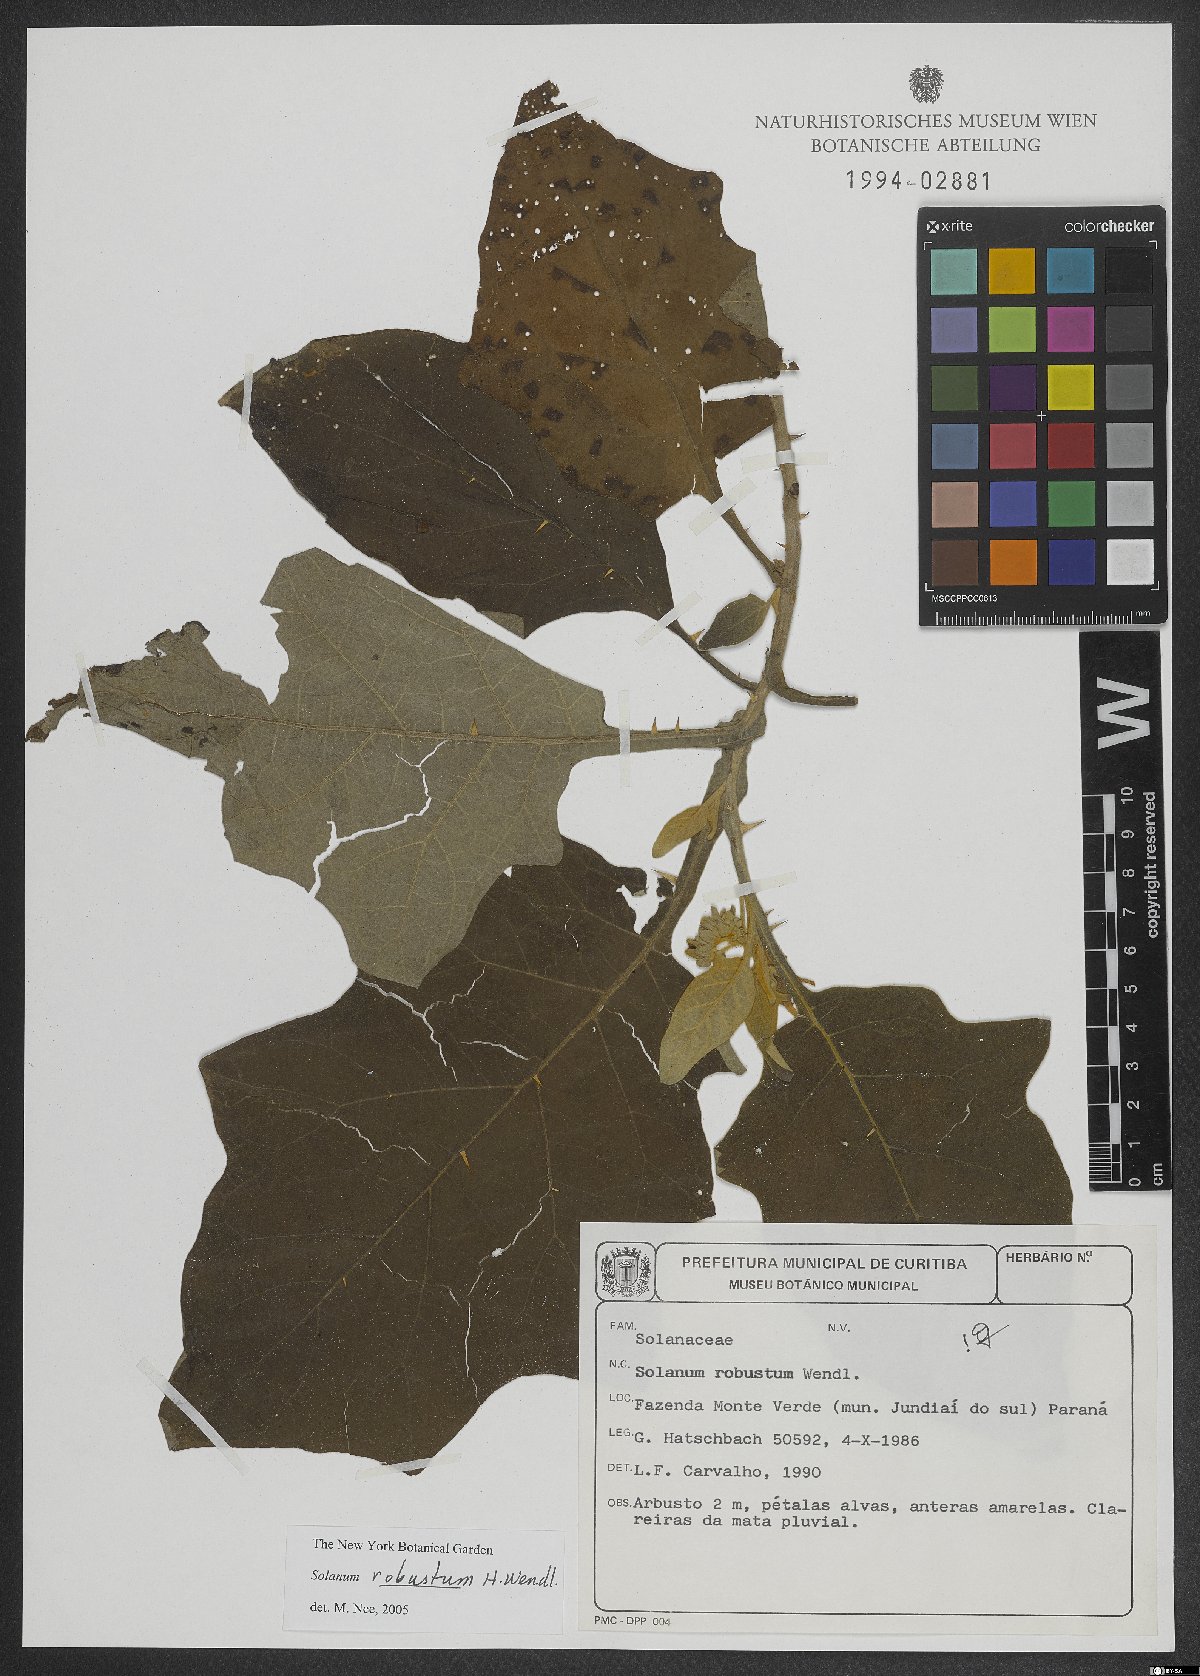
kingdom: Plantae
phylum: Tracheophyta
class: Magnoliopsida
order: Solanales
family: Solanaceae
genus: Solanum
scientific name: Solanum robustum
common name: Shrubby nightshade
